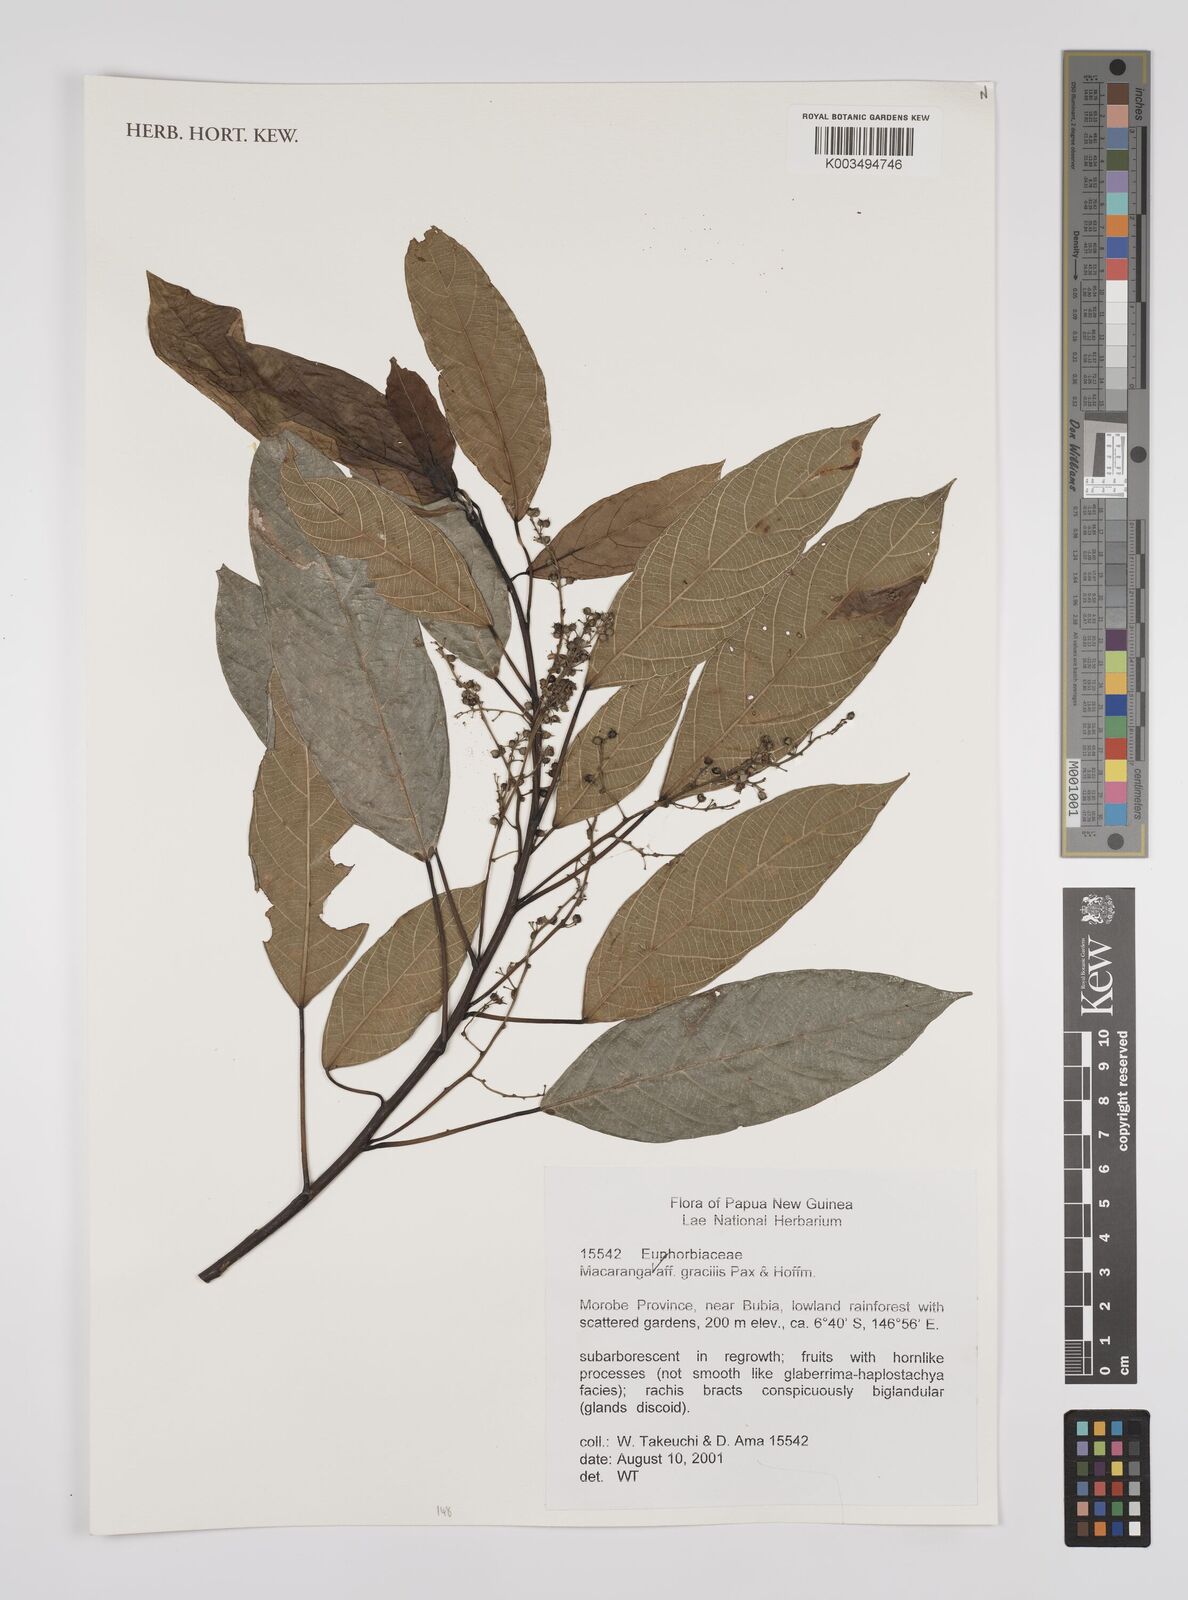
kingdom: Plantae
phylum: Tracheophyta
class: Magnoliopsida
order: Malpighiales
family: Euphorbiaceae
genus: Macaranga
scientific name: Macaranga gracilis
